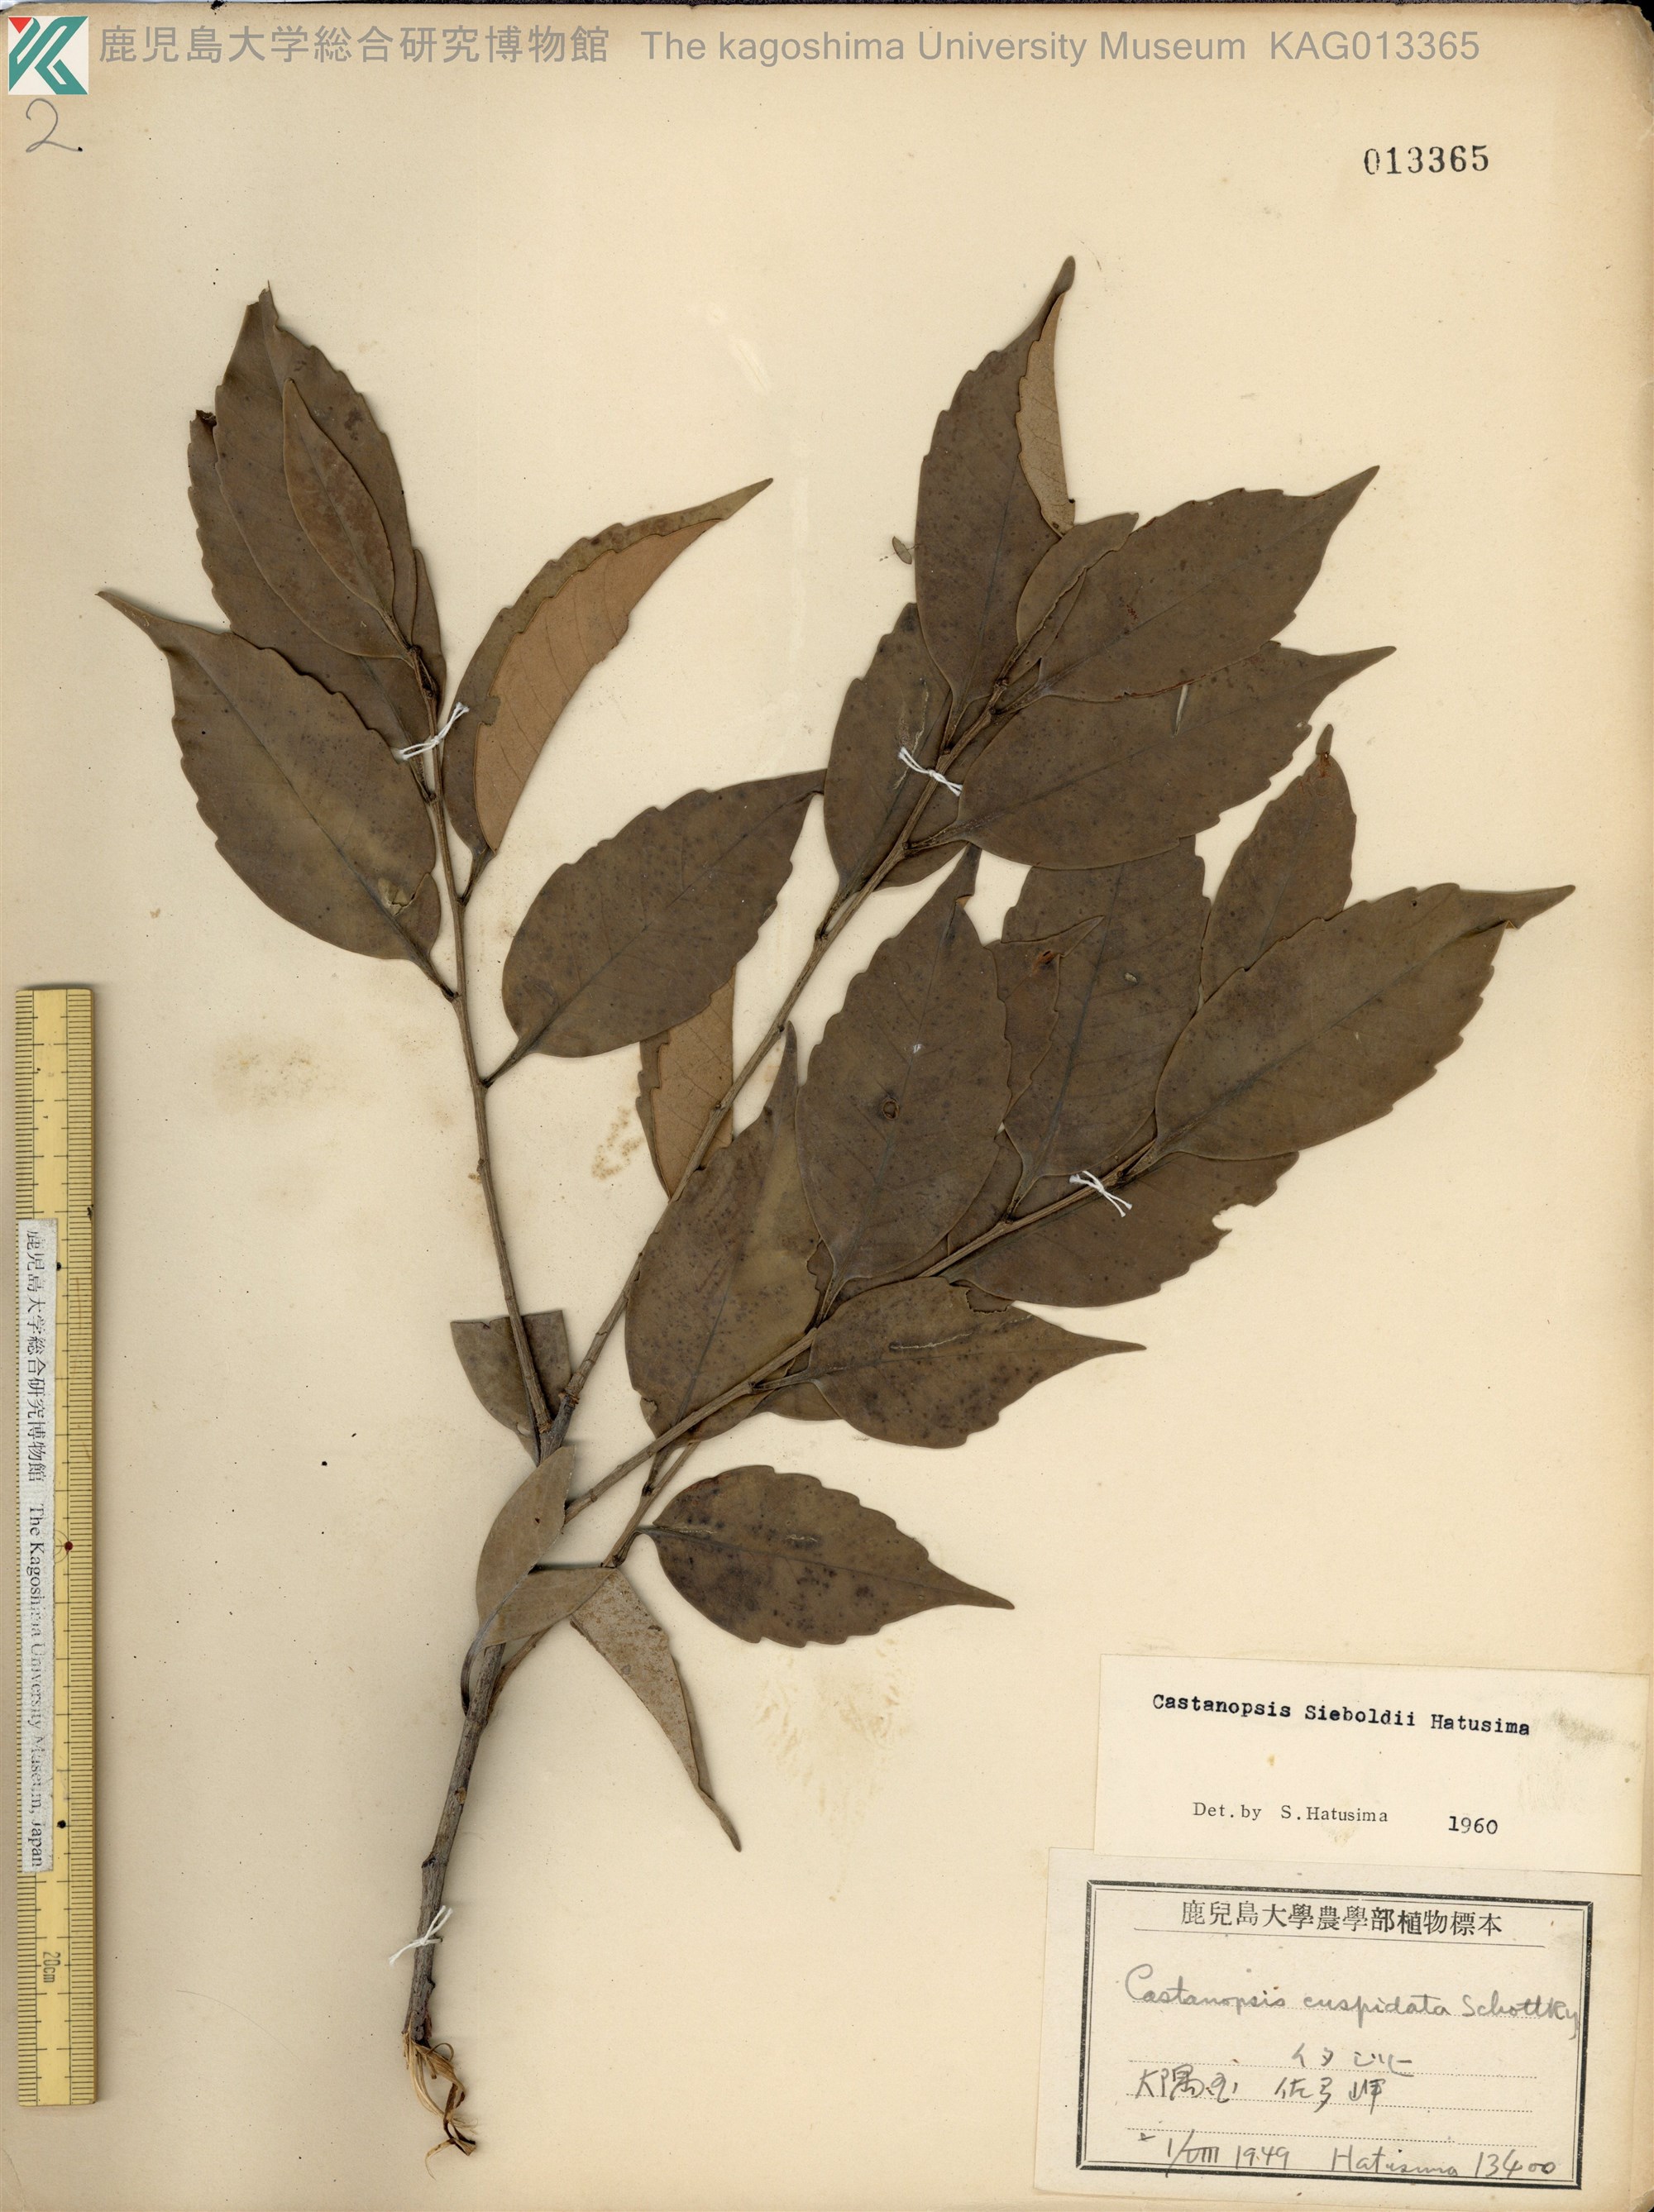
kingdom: Plantae
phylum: Tracheophyta
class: Magnoliopsida
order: Fagales
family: Fagaceae
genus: Castanopsis
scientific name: Castanopsis sieboldii
